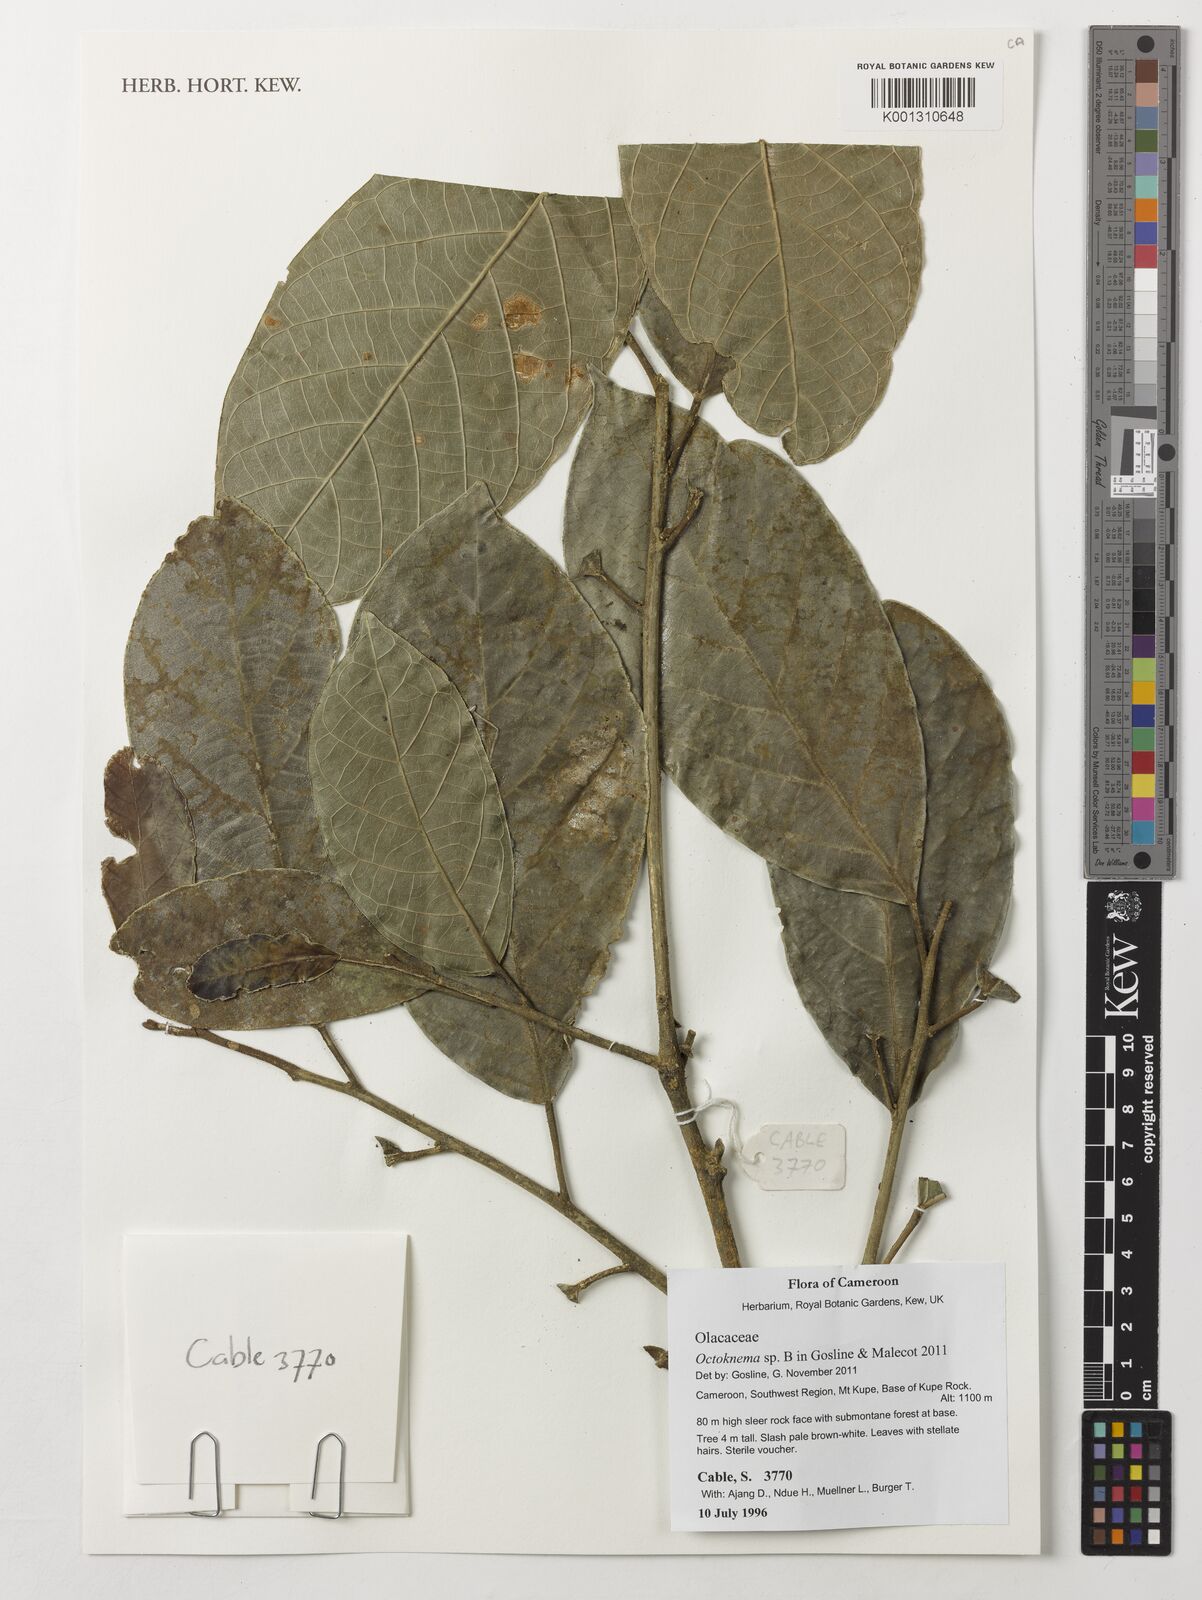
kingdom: Plantae
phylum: Tracheophyta
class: Magnoliopsida
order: Santalales
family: Octoknemaceae
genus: Octoknema
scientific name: Octoknema
